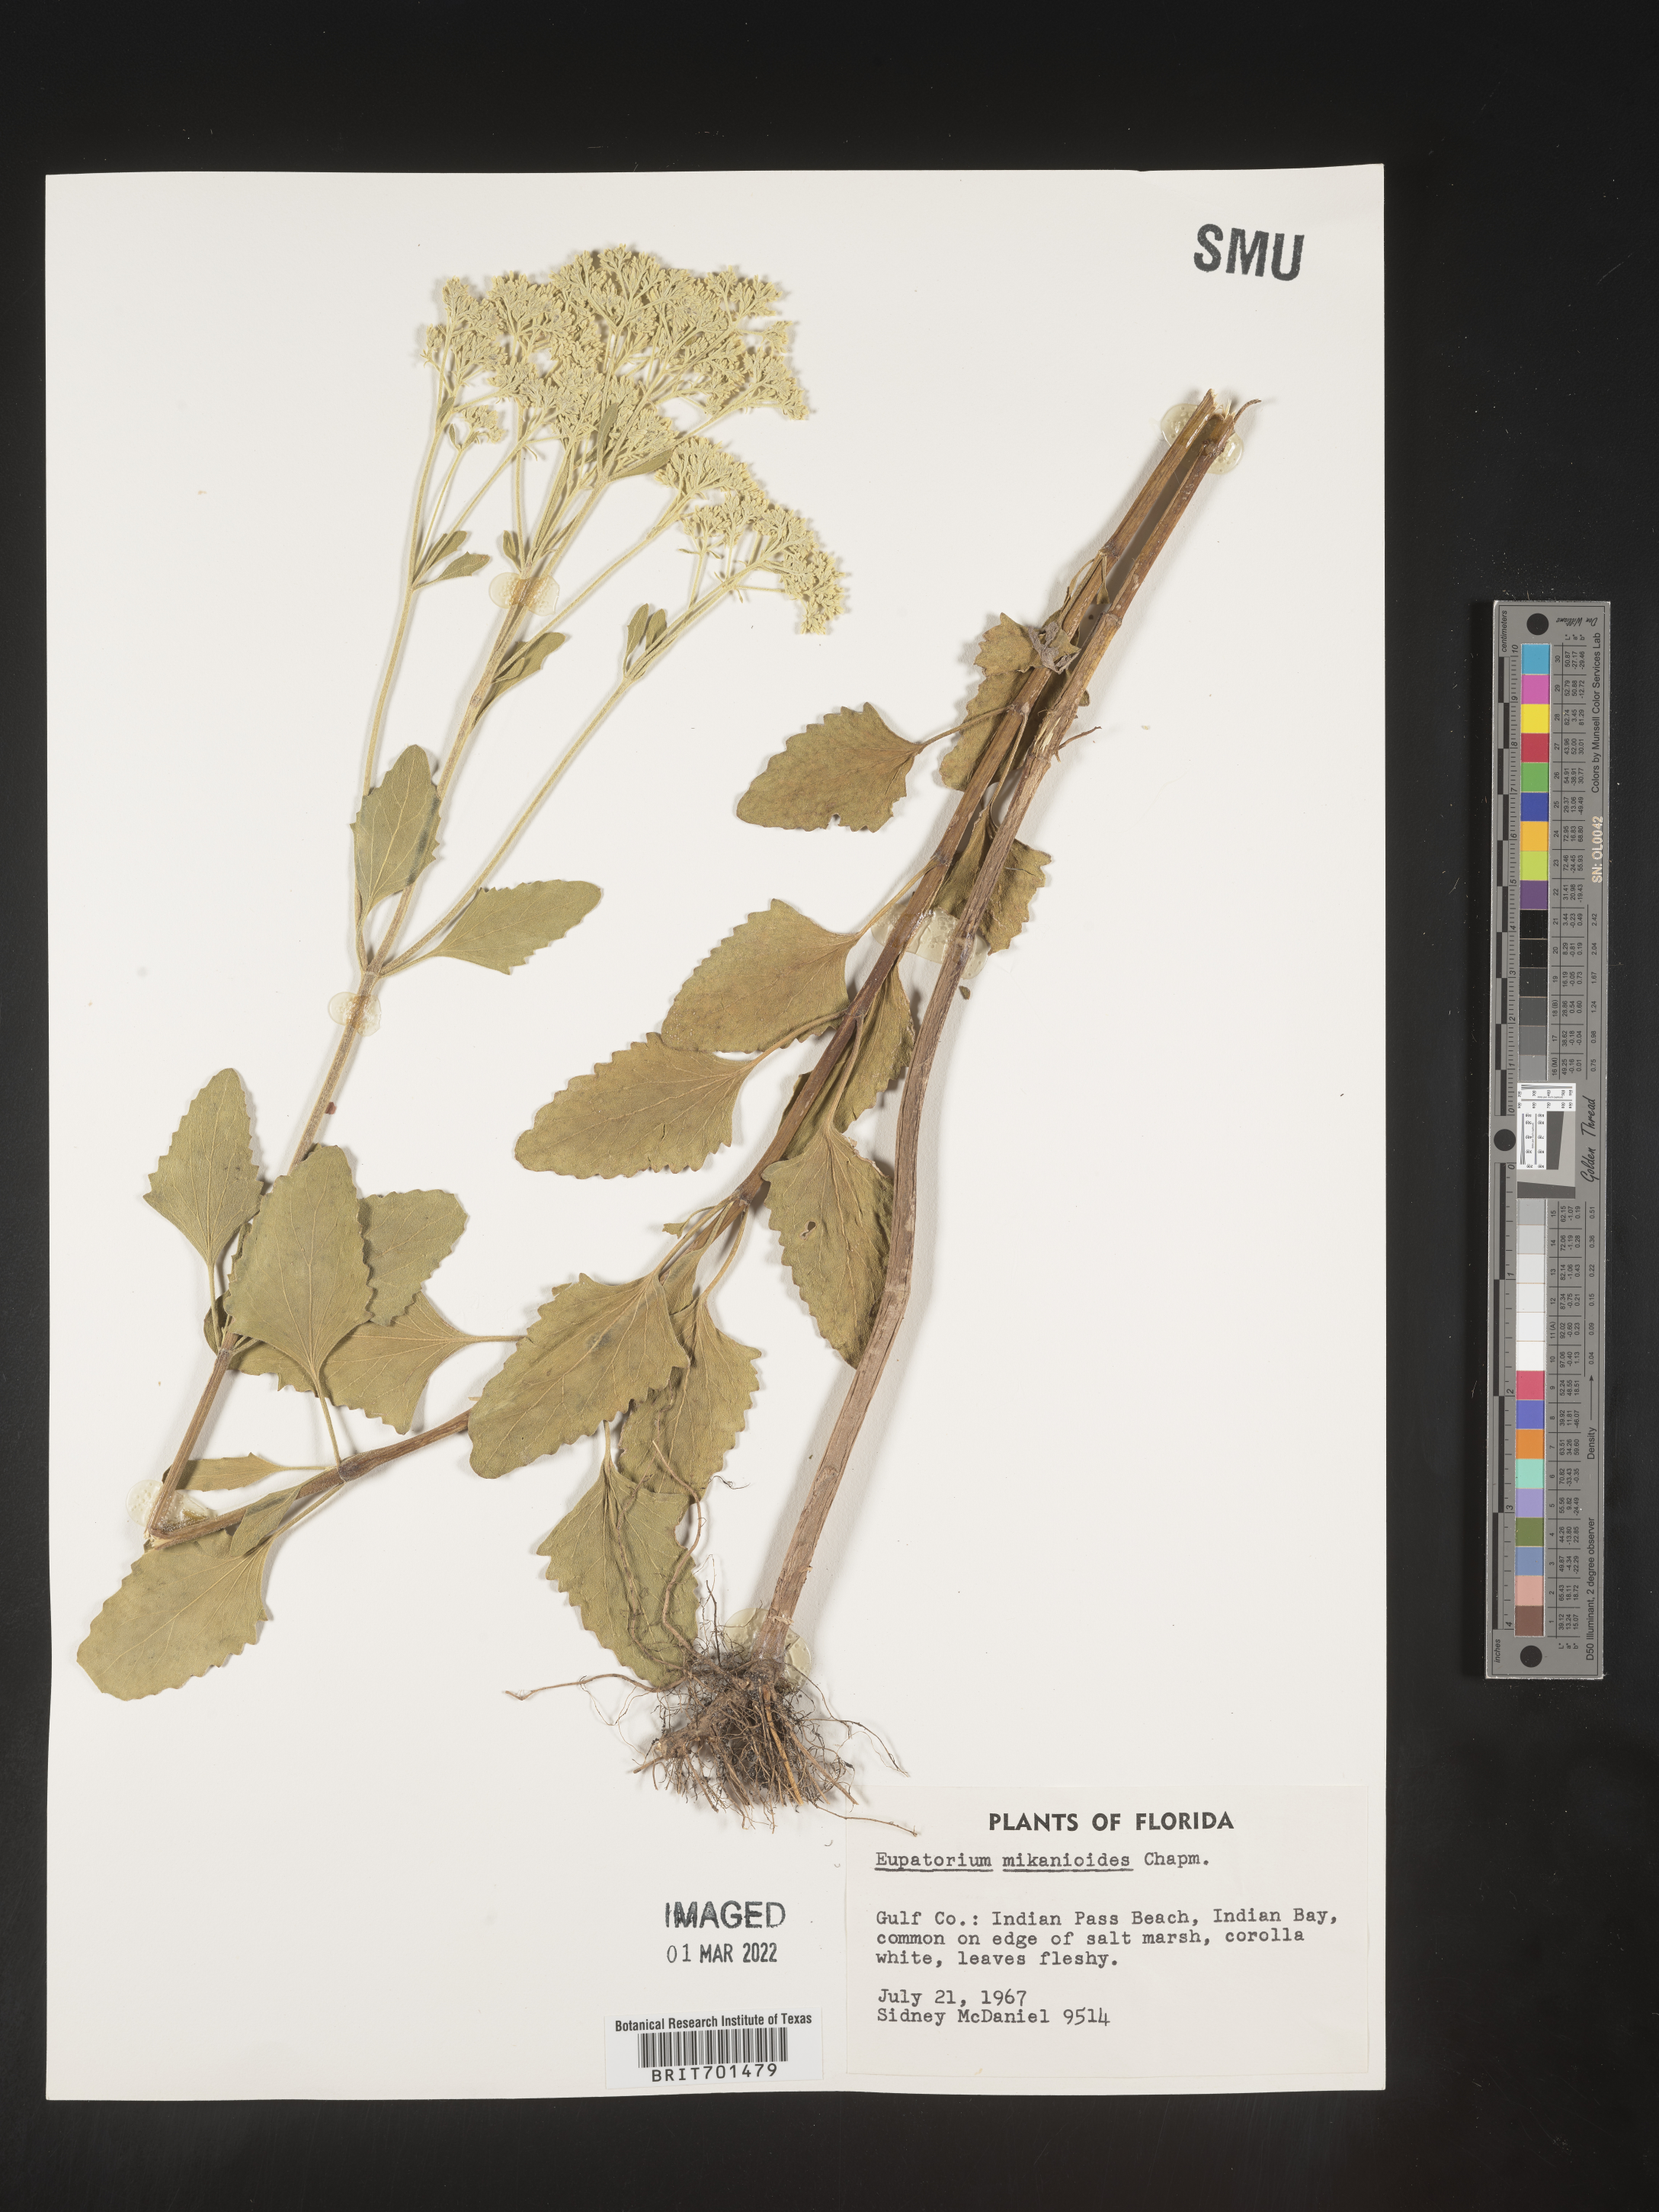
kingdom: Plantae
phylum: Tracheophyta
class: Magnoliopsida
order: Asterales
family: Asteraceae
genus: Eupatorium
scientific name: Eupatorium
